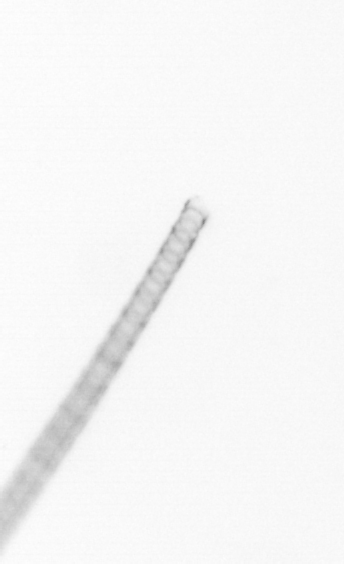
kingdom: Chromista
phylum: Ochrophyta
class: Bacillariophyceae
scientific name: Bacillariophyceae
